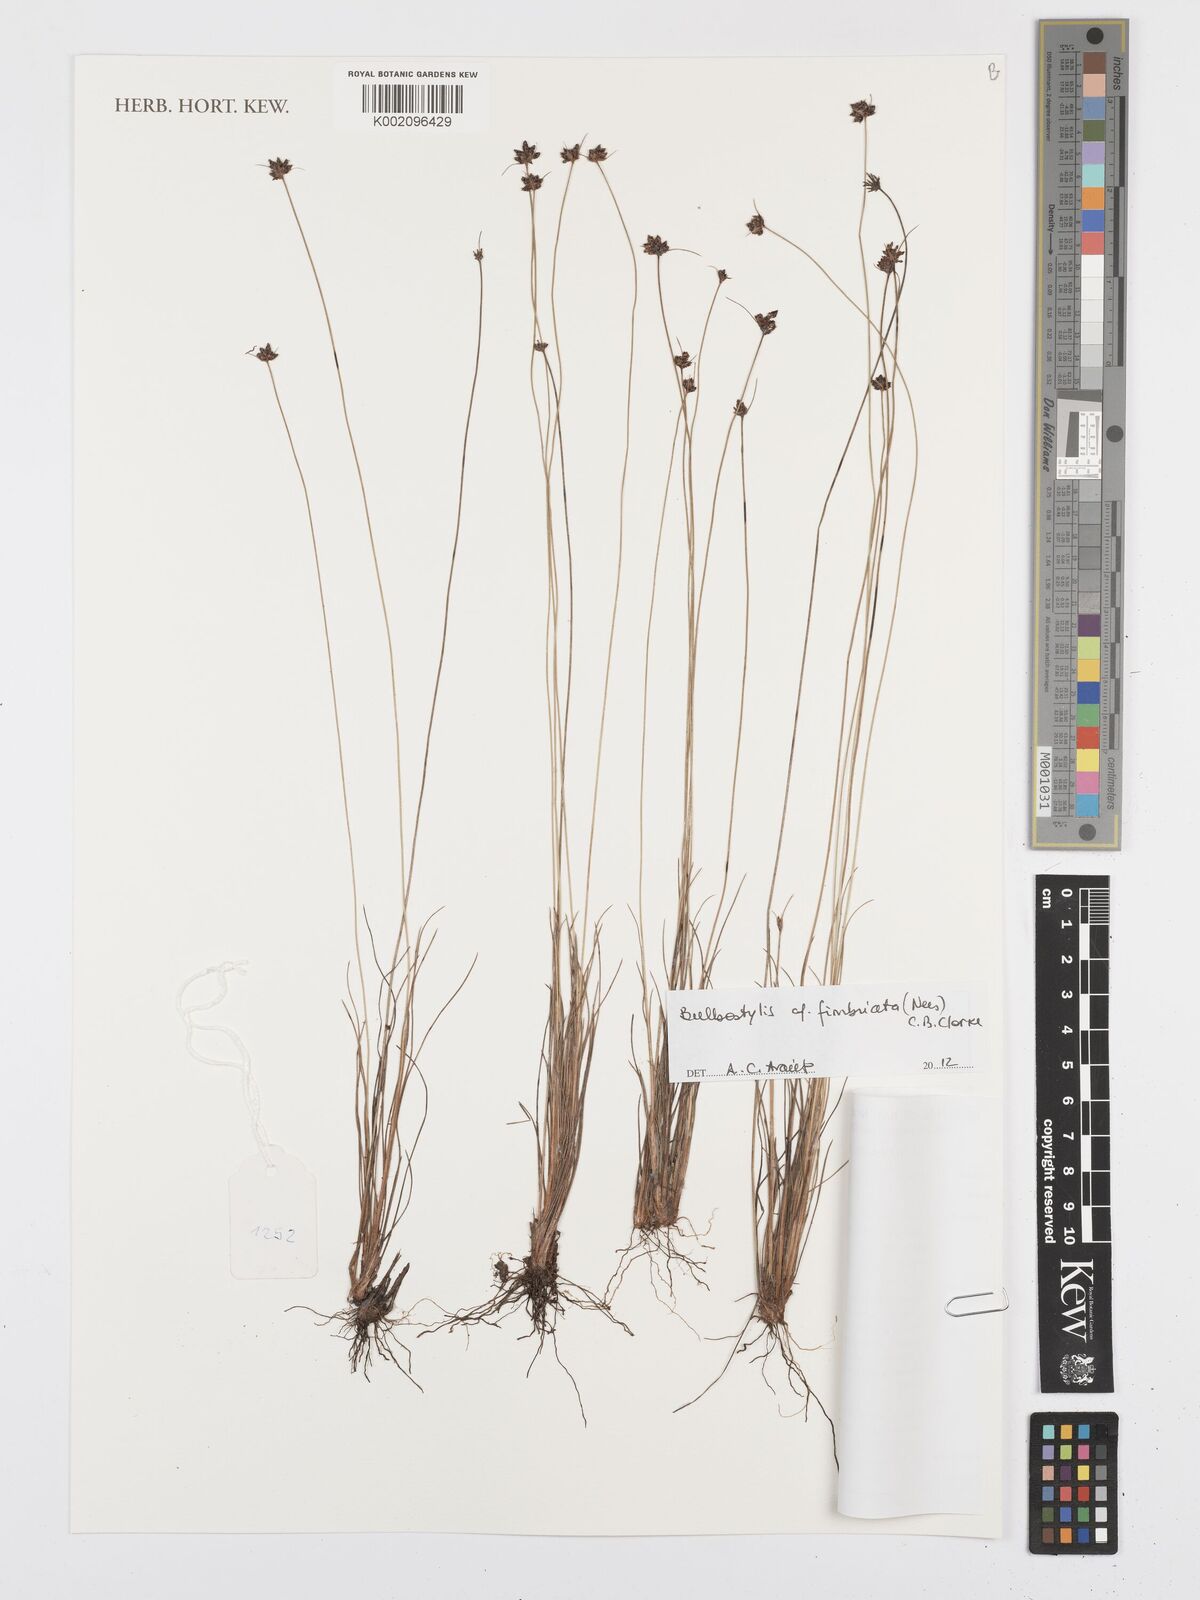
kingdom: Plantae
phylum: Tracheophyta
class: Liliopsida
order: Poales
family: Cyperaceae
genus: Bulbostylis
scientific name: Bulbostylis juncoides
